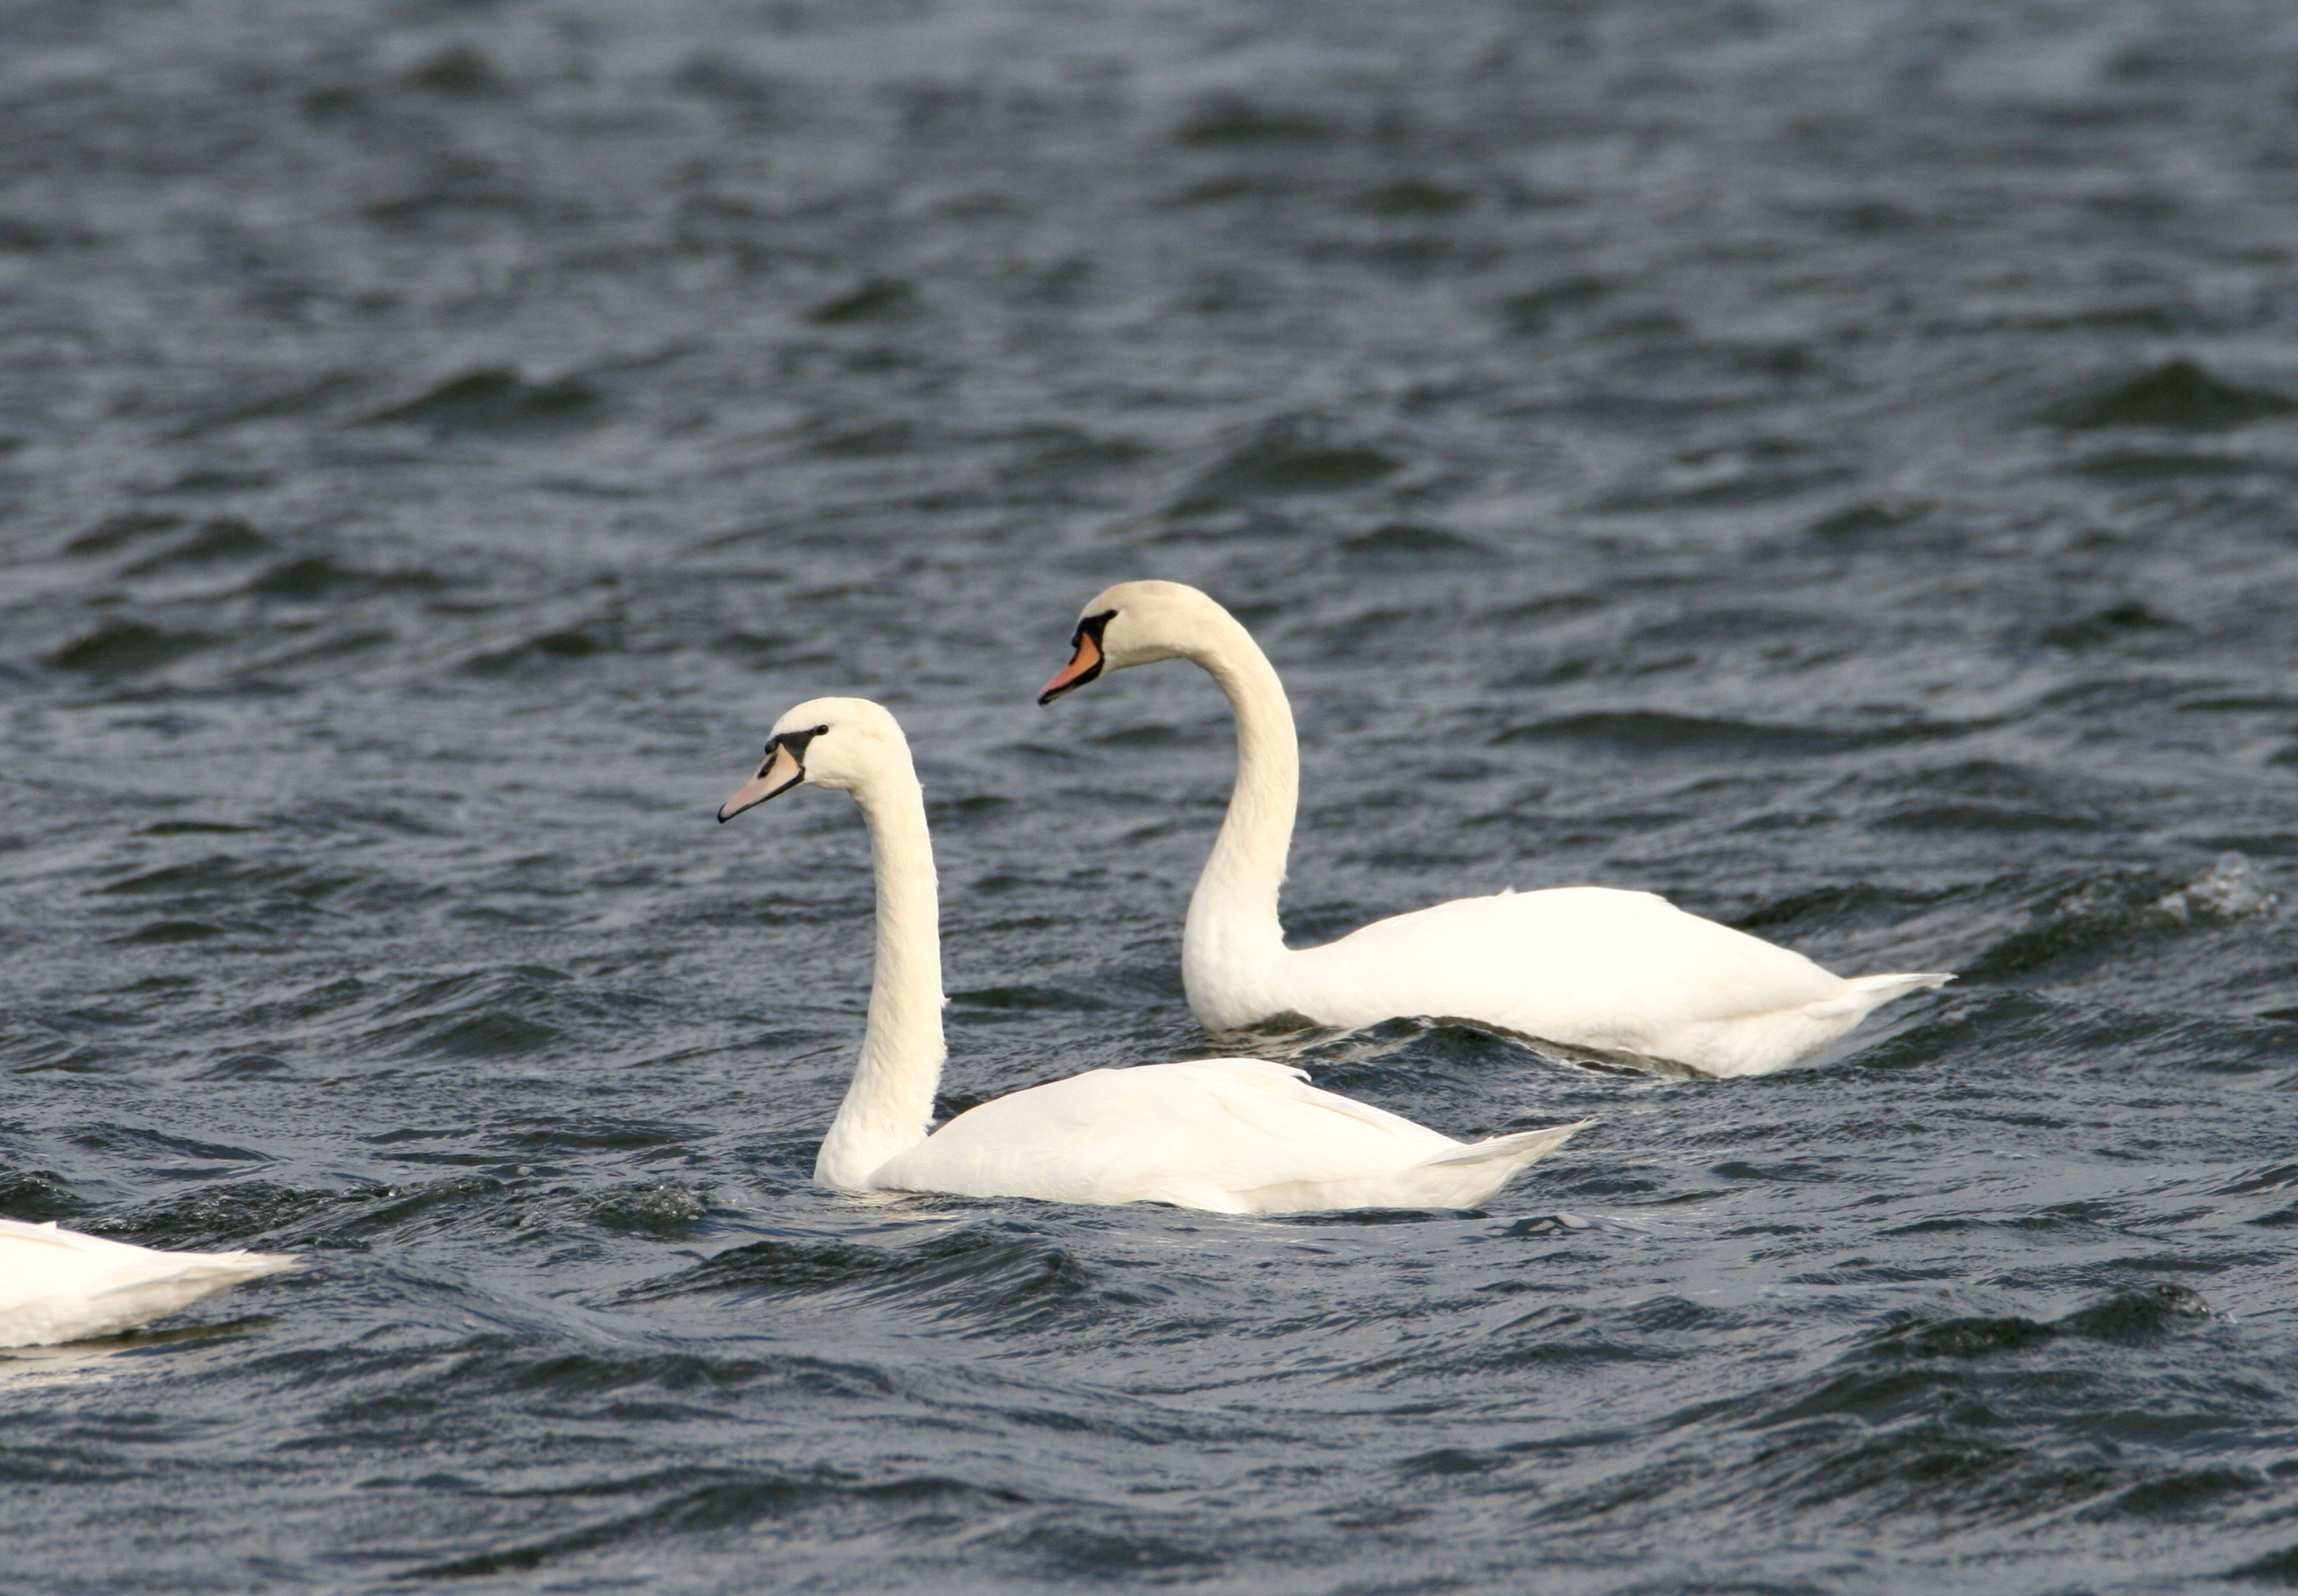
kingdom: Animalia
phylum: Chordata
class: Aves
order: Anseriformes
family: Anatidae
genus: Cygnus
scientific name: Cygnus olor
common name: Knopsvane
